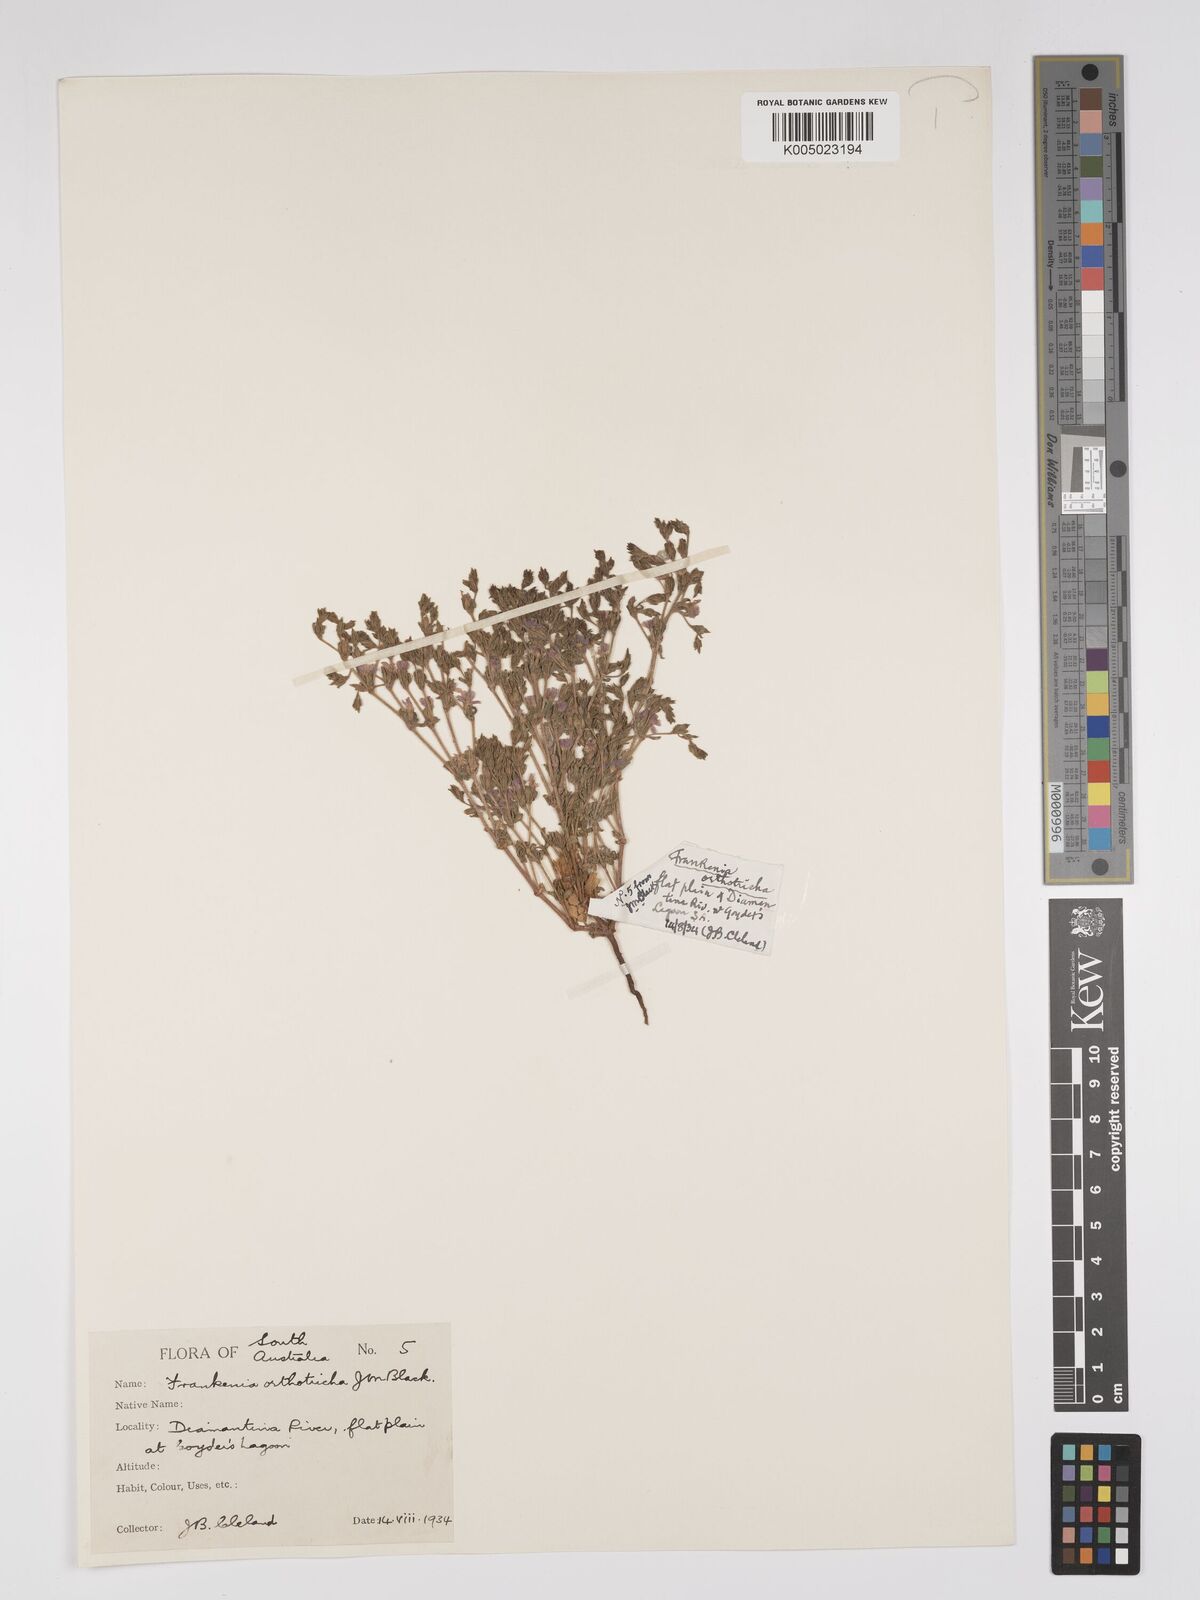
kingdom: Plantae
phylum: Tracheophyta
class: Magnoliopsida
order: Caryophyllales
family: Frankeniaceae
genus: Frankenia
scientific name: Frankenia orthotricha
